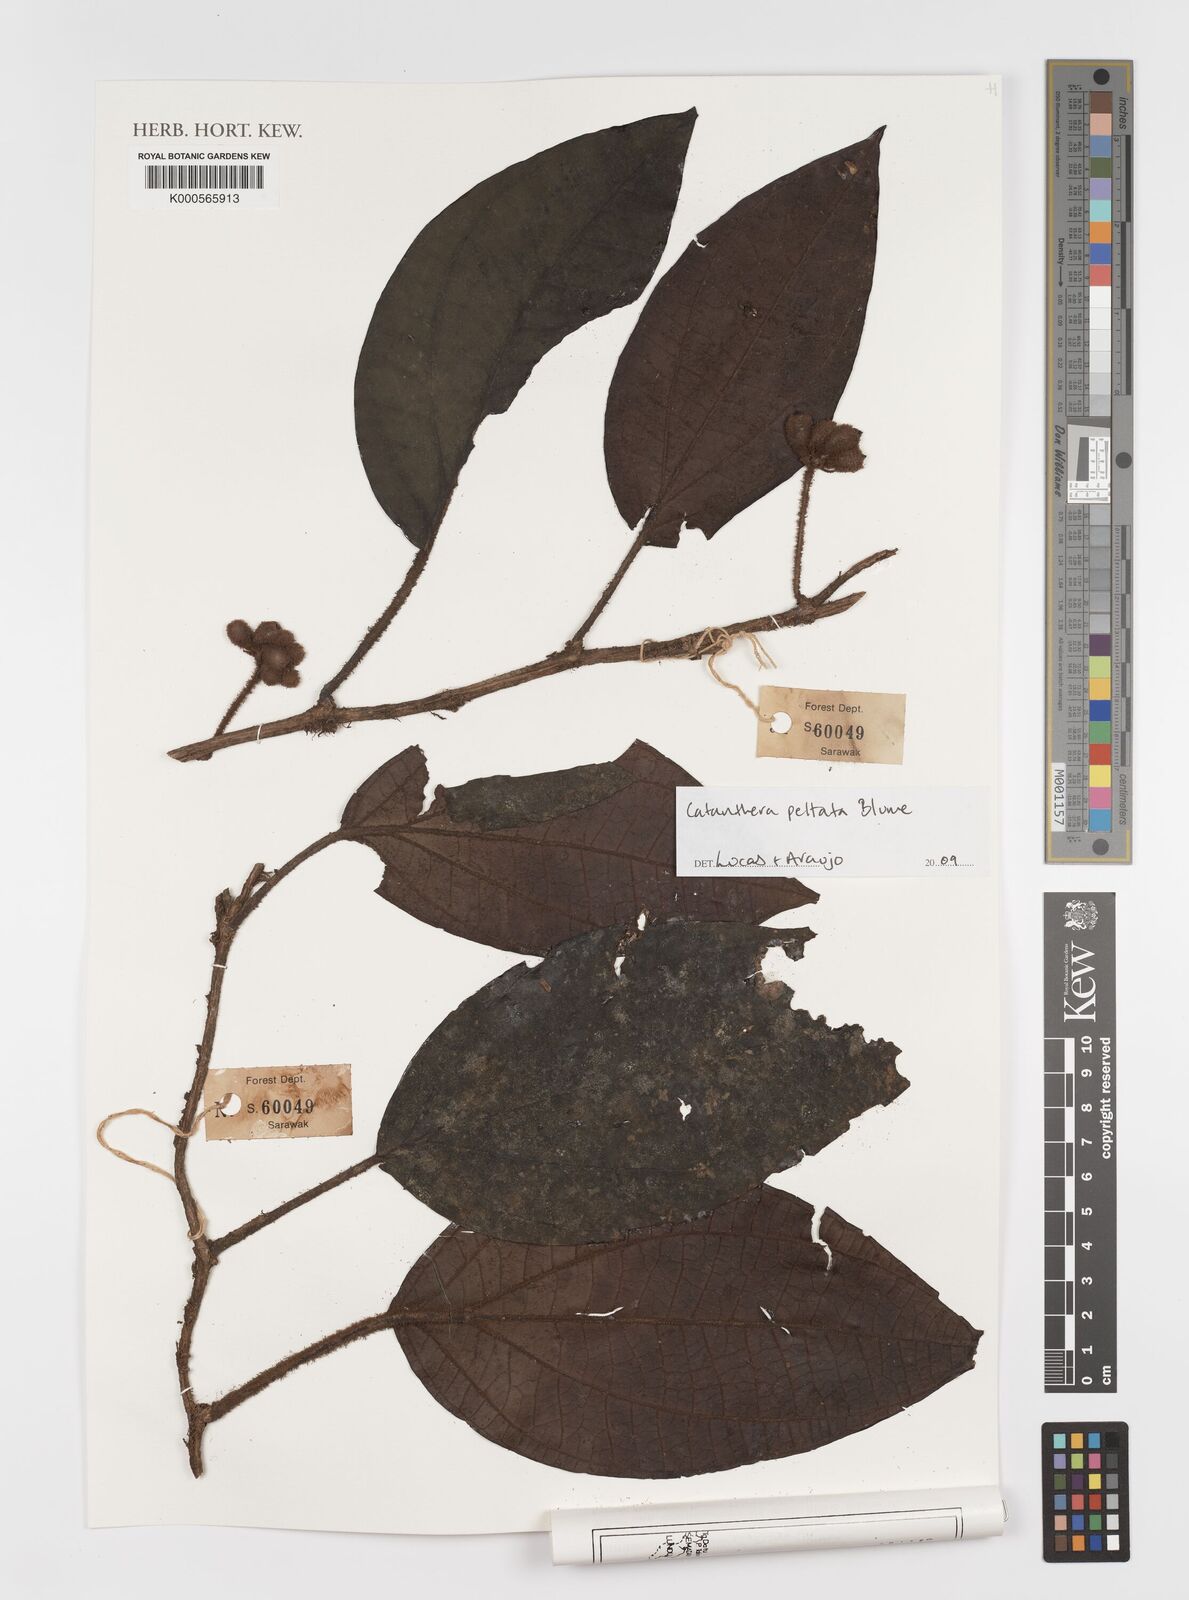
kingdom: Plantae
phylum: Tracheophyta
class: Magnoliopsida
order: Myrtales
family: Melastomataceae
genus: Catanthera
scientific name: Catanthera
